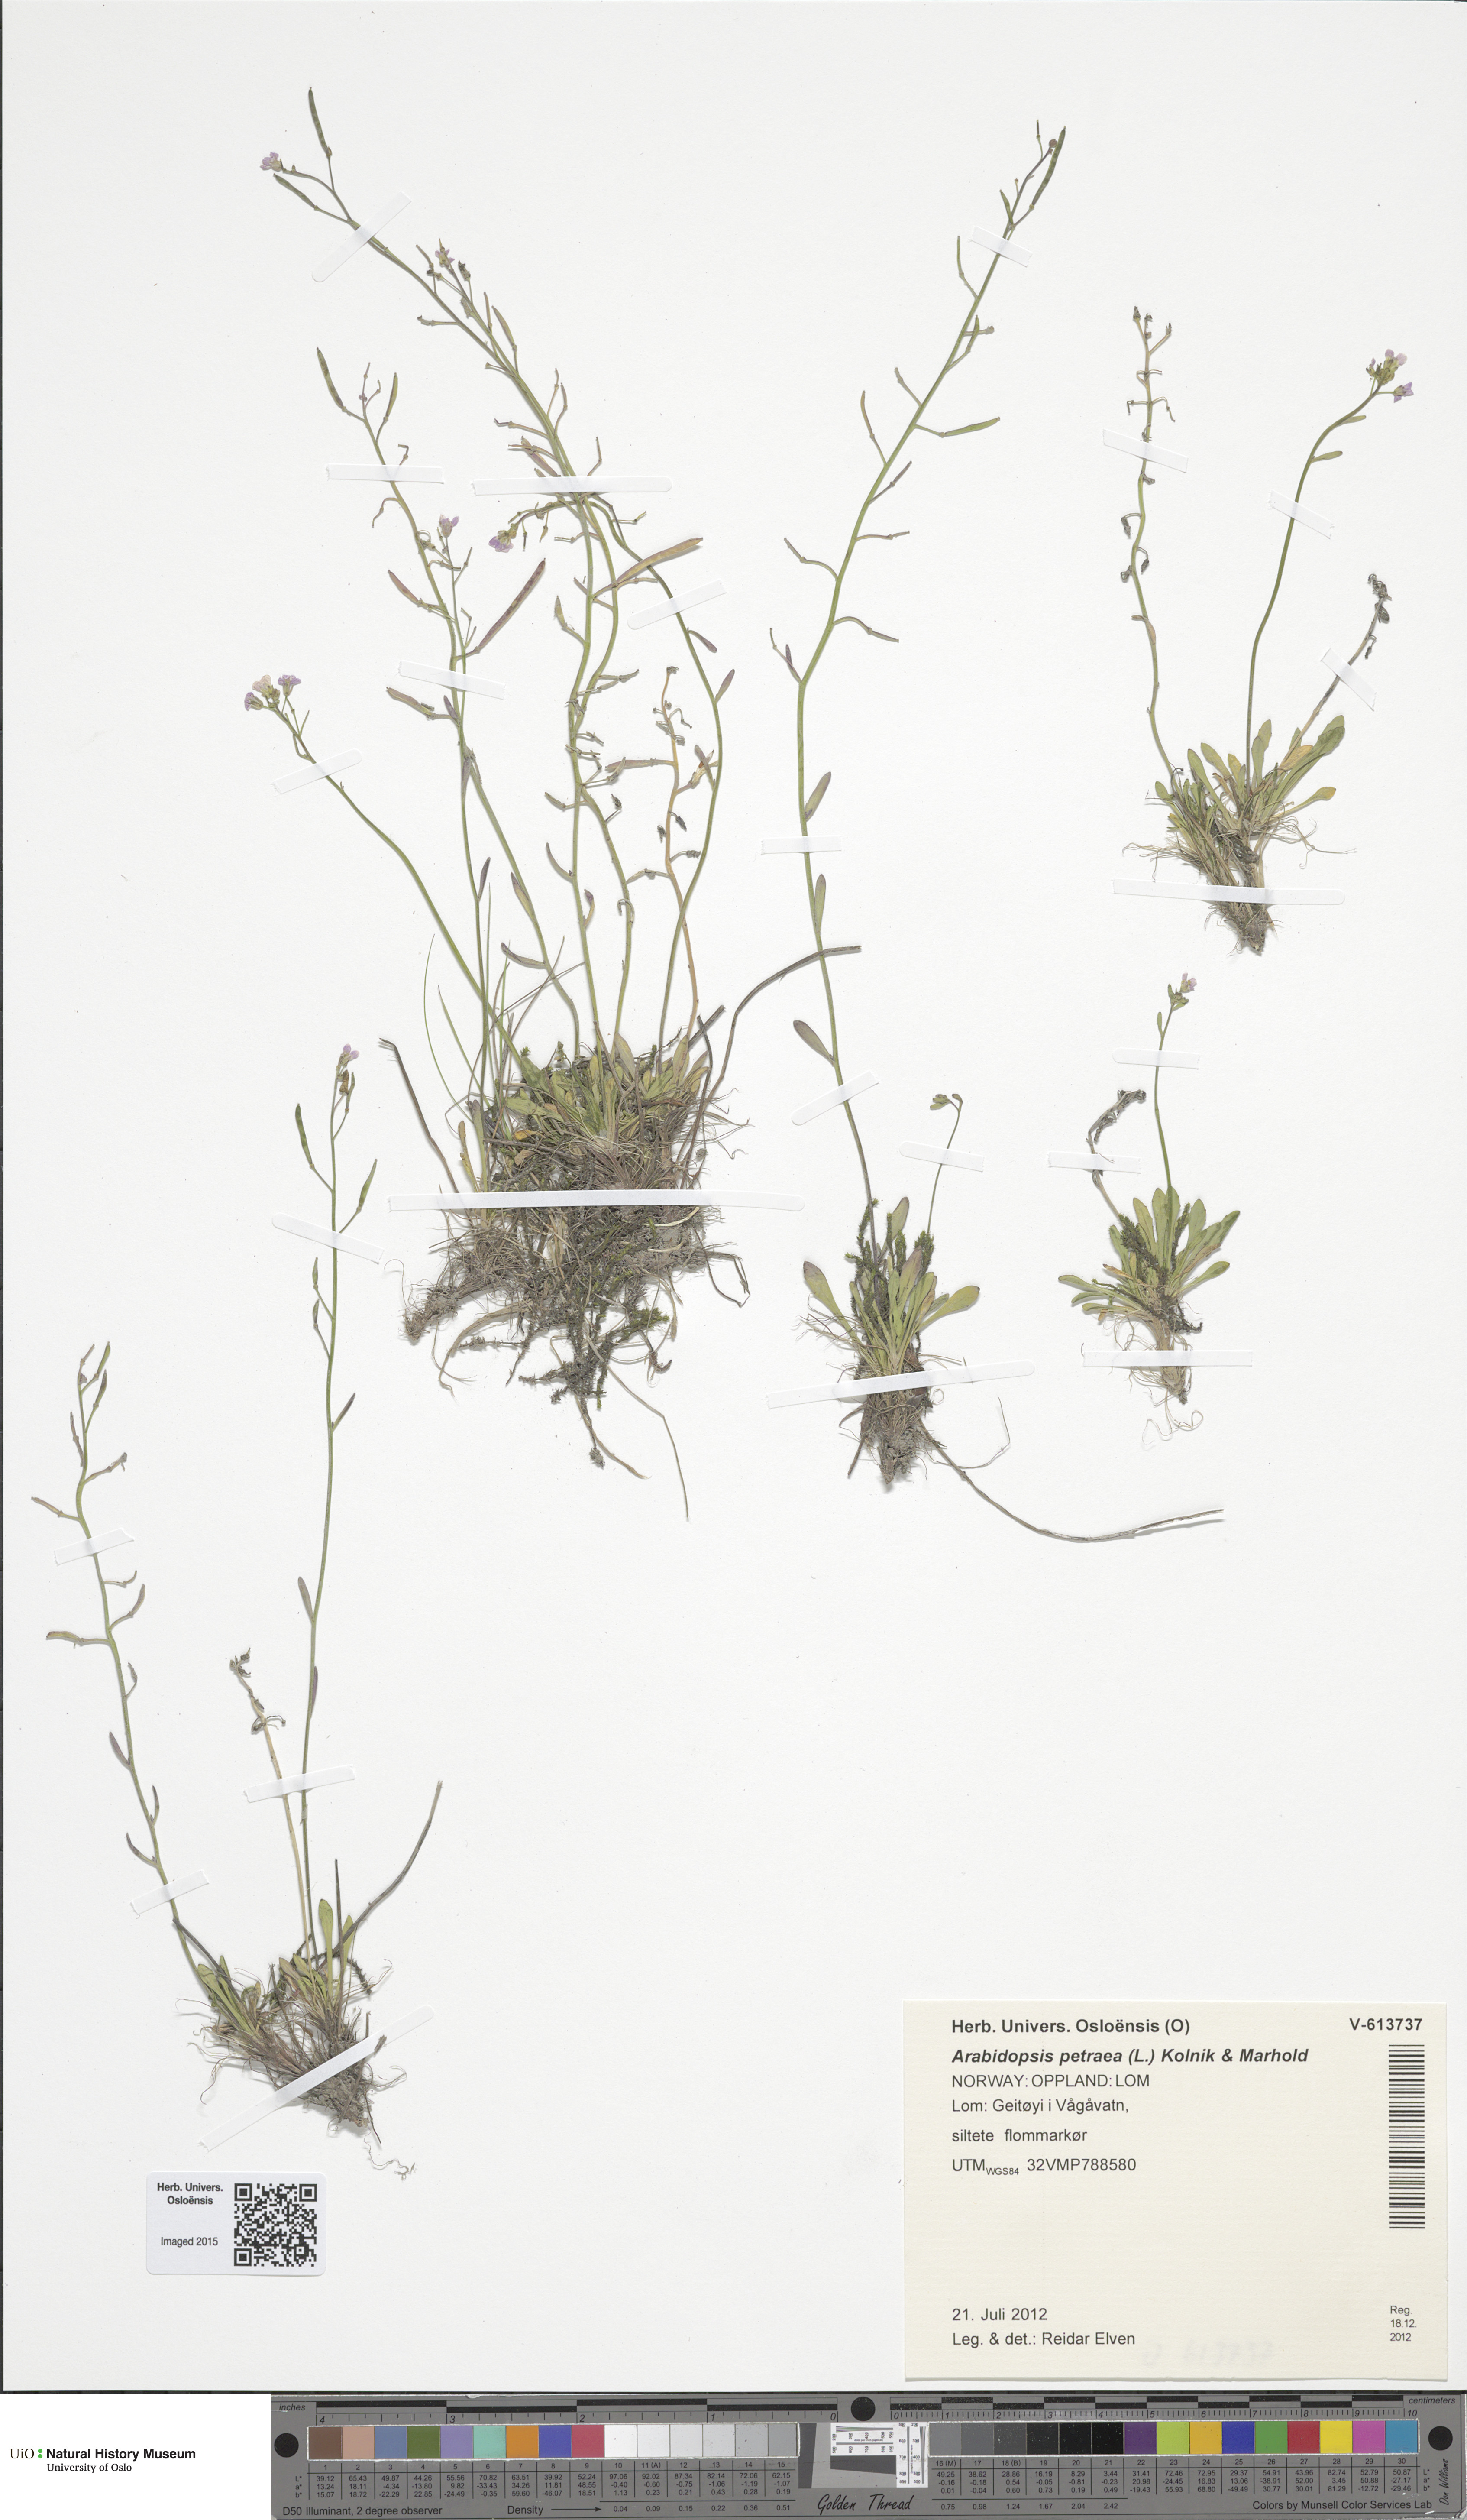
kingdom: Plantae
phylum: Tracheophyta
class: Magnoliopsida
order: Brassicales
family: Brassicaceae
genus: Arabidopsis
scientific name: Arabidopsis lyrata
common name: Lyrate rockcress
